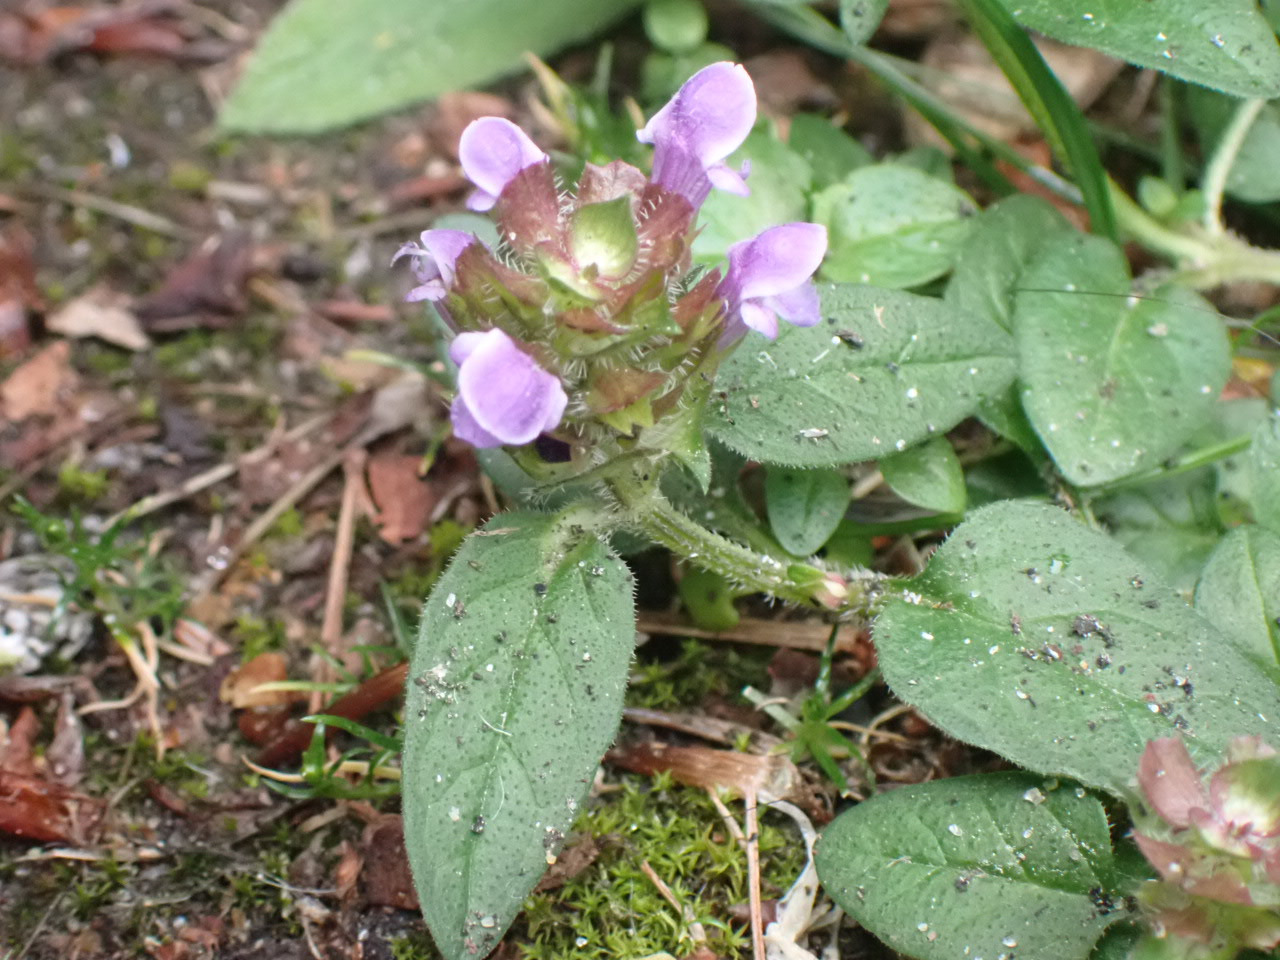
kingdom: Plantae
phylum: Tracheophyta
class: Magnoliopsida
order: Lamiales
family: Lamiaceae
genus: Prunella
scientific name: Prunella vulgaris
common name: Almindelig brunelle
